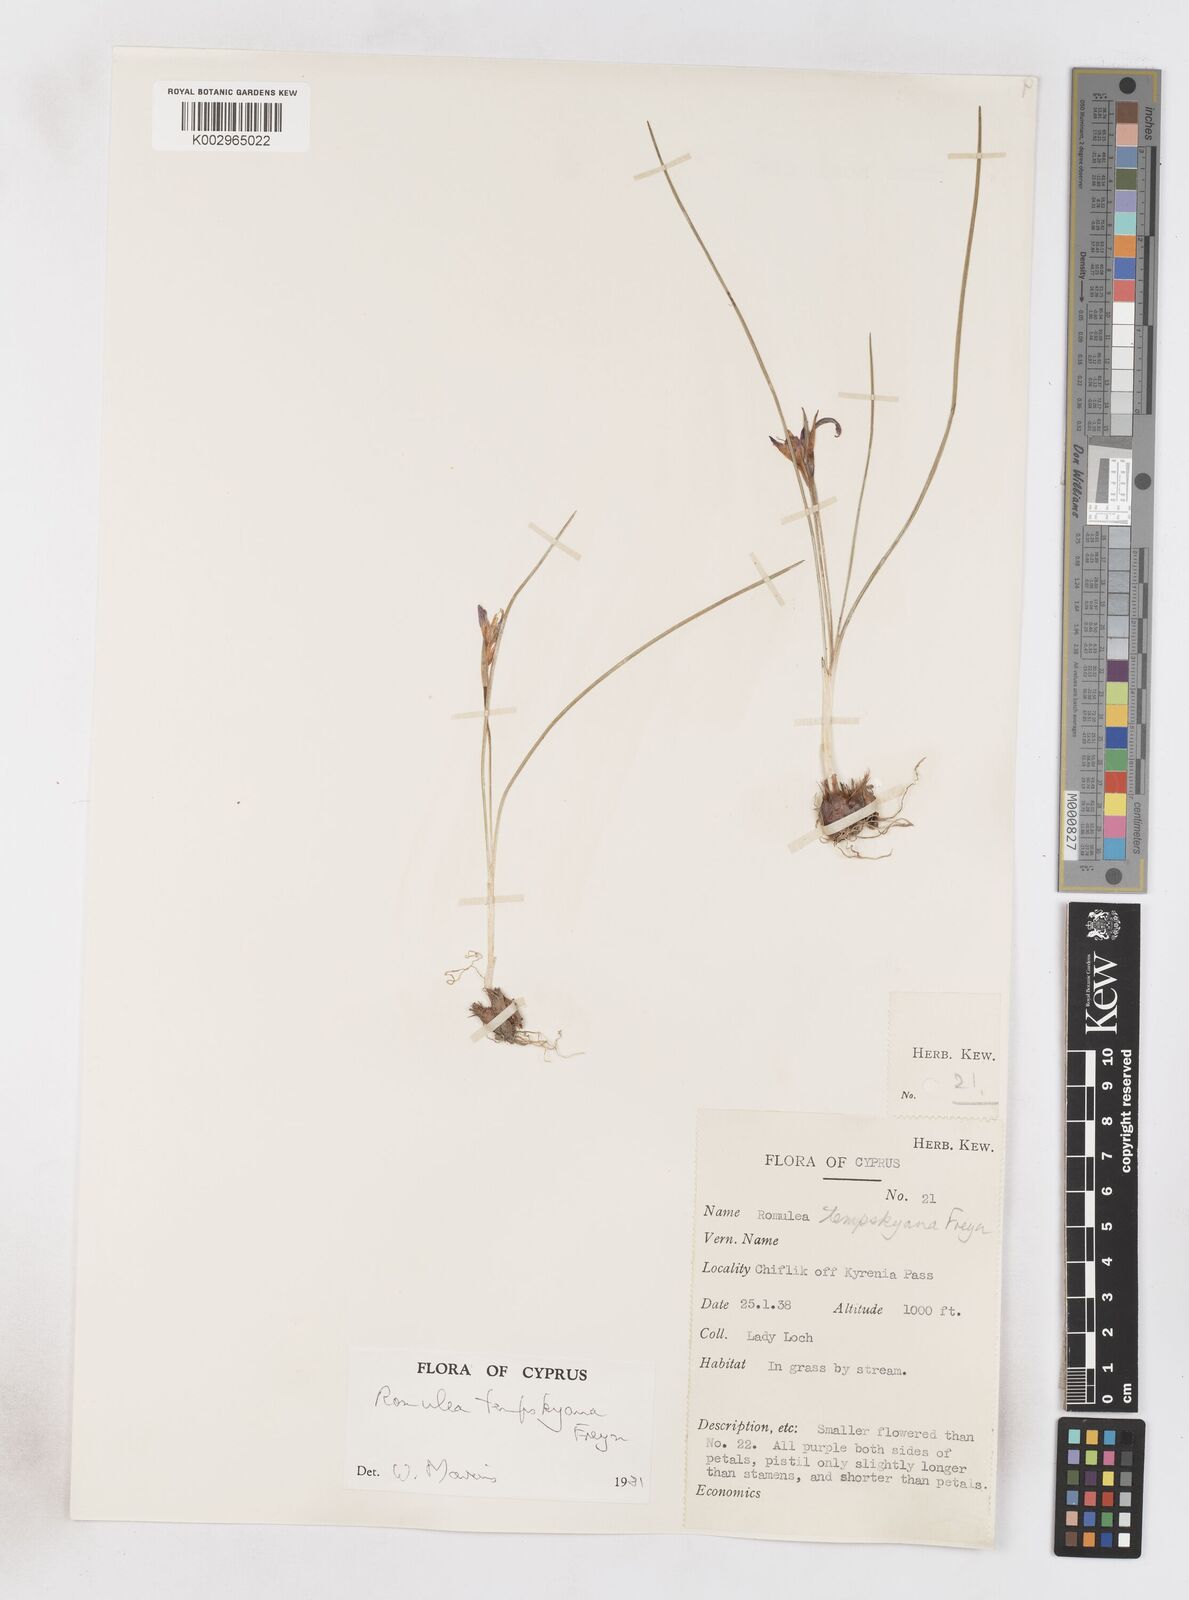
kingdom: Plantae
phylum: Tracheophyta
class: Liliopsida
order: Asparagales
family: Iridaceae
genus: Romulea
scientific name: Romulea tempskyana
